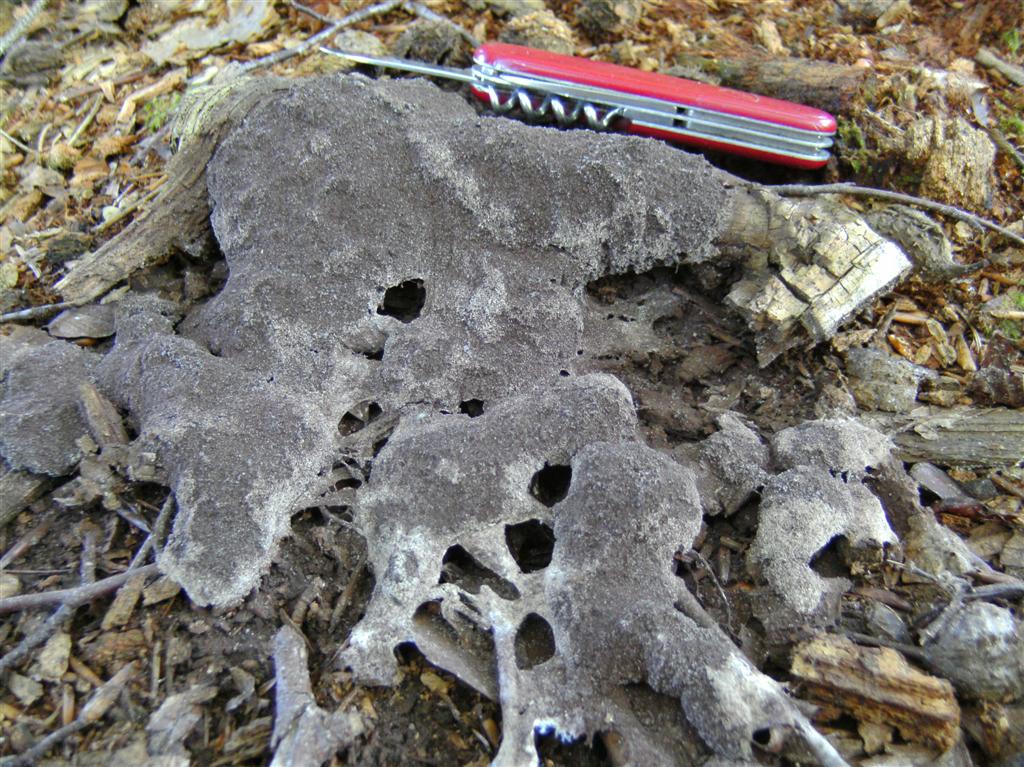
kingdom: Protozoa
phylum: Mycetozoa
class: Myxomycetes
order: Physarales
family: Physaraceae
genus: Fuligo
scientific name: Fuligo septica
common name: Dog vomit slime mold
